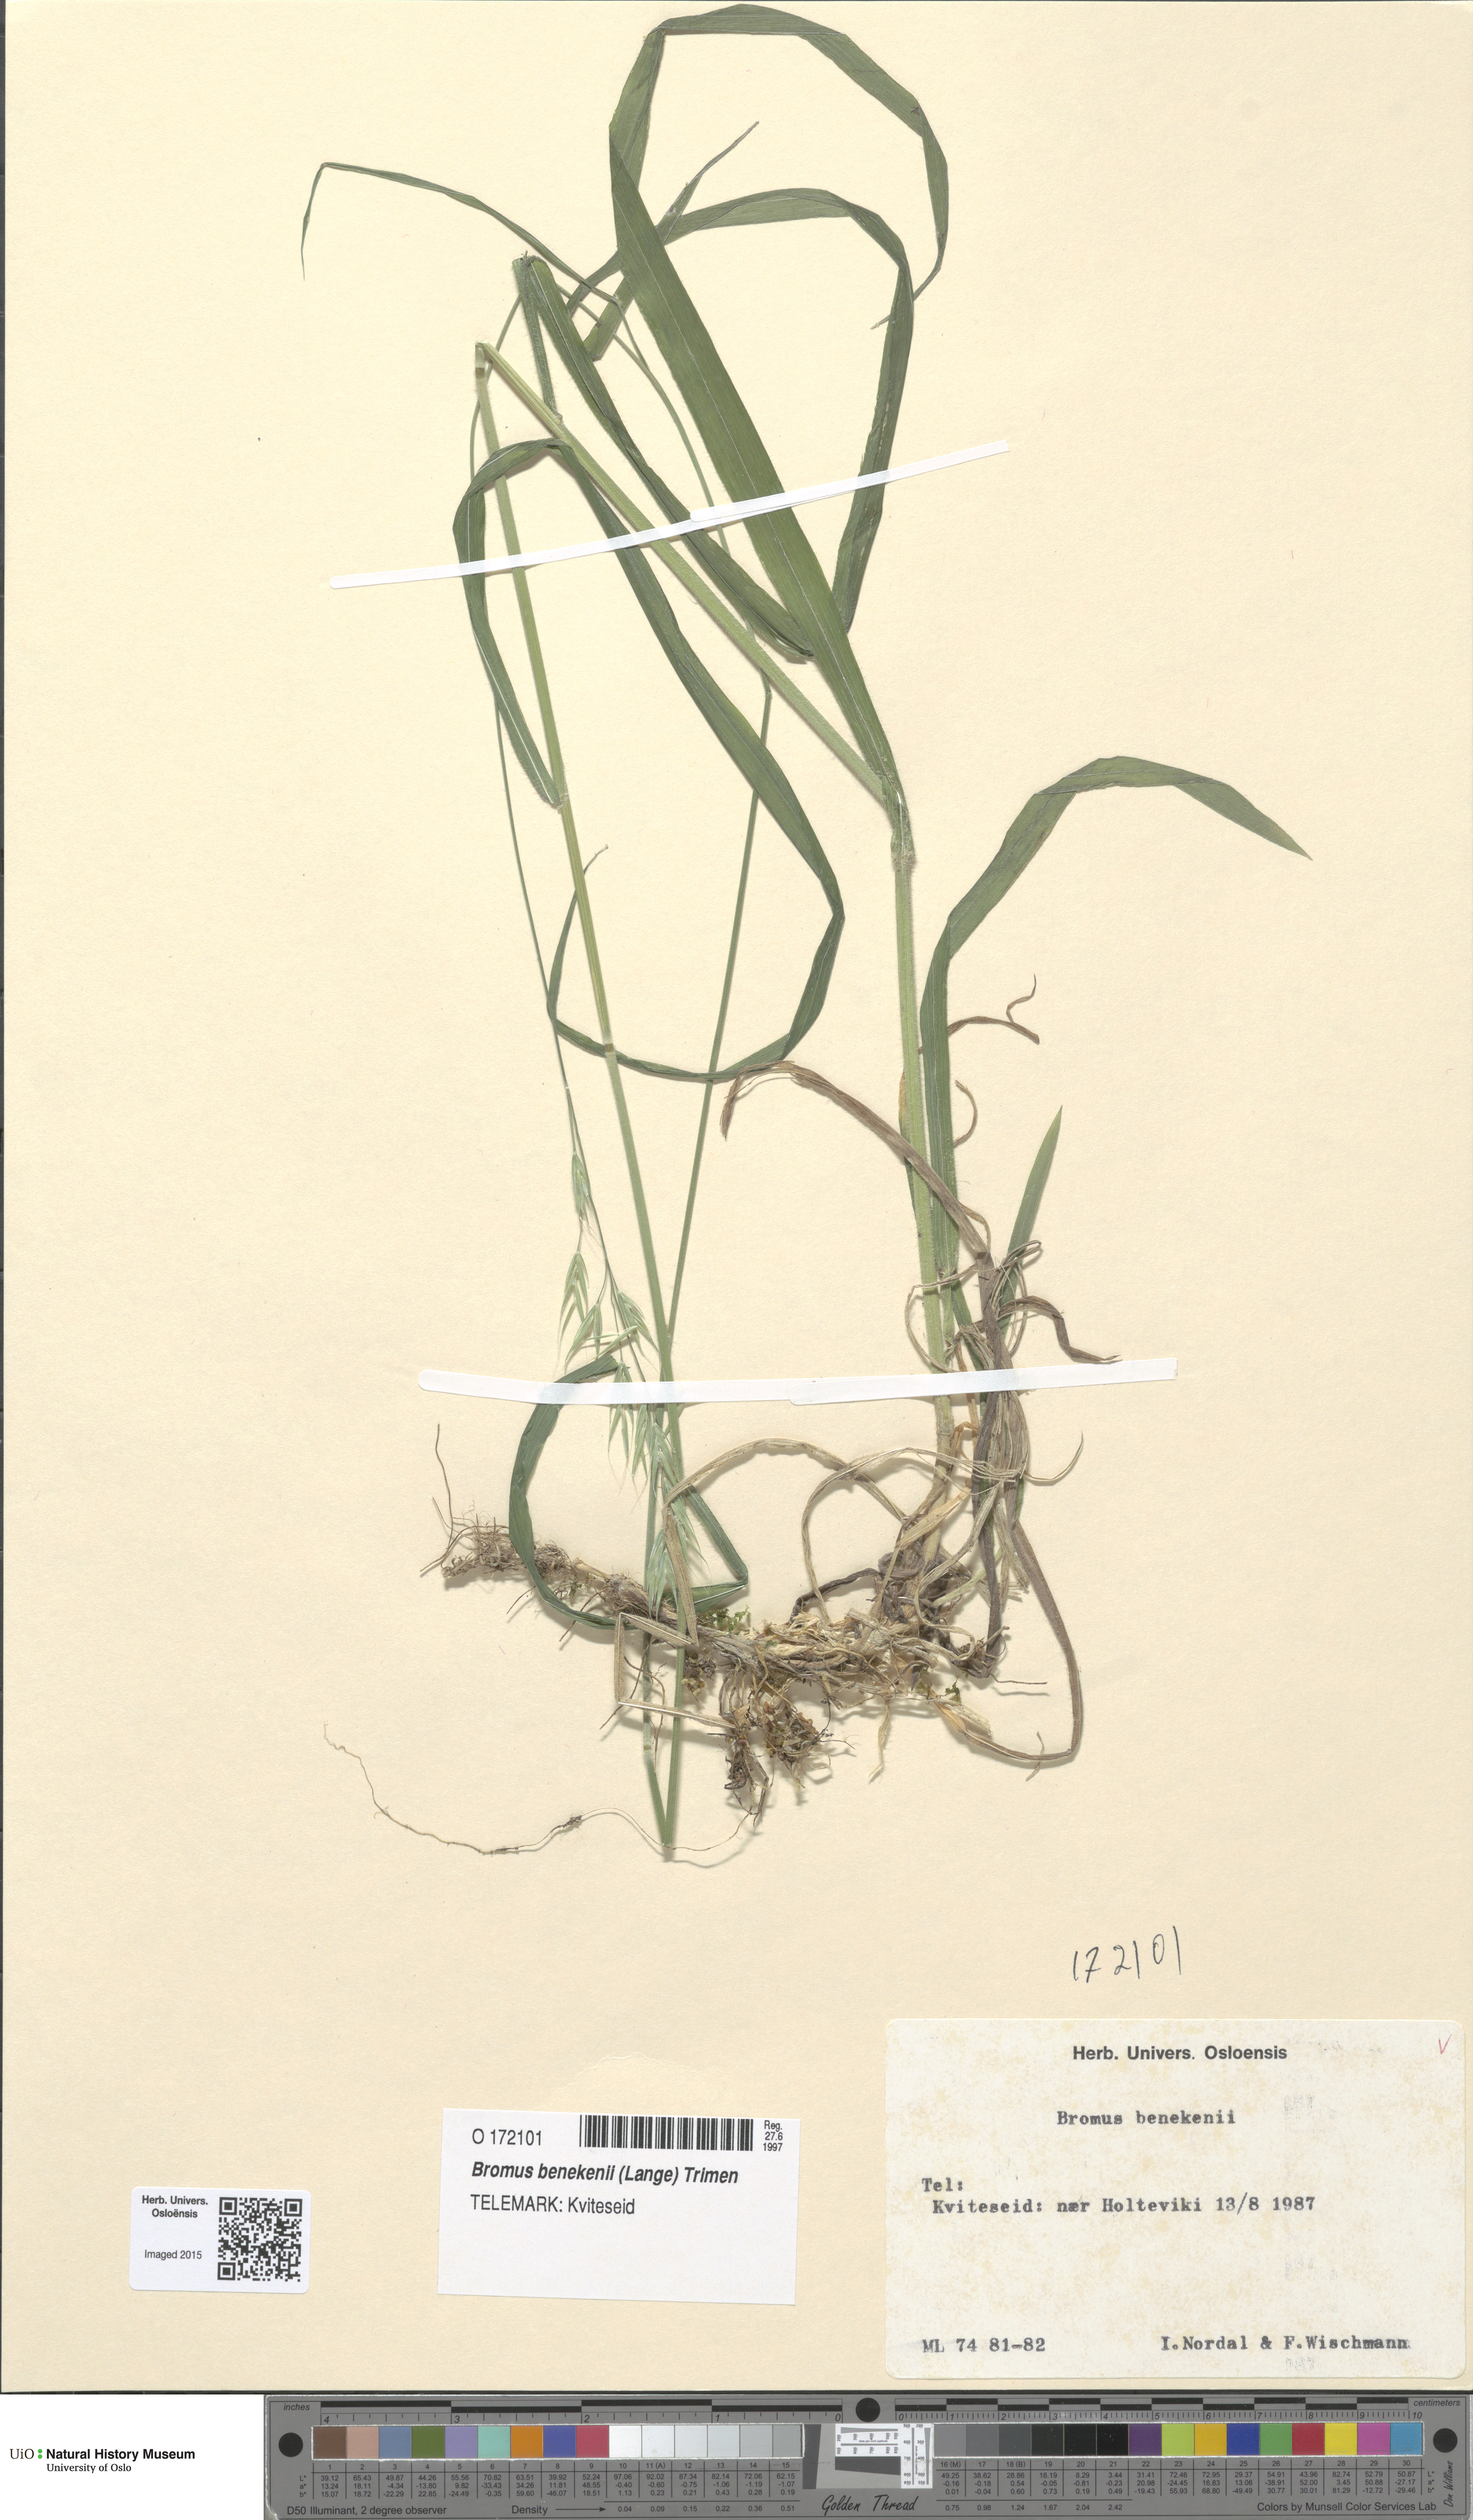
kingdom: Plantae
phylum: Tracheophyta
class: Liliopsida
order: Poales
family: Poaceae
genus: Bromus
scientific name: Bromus benekenii
